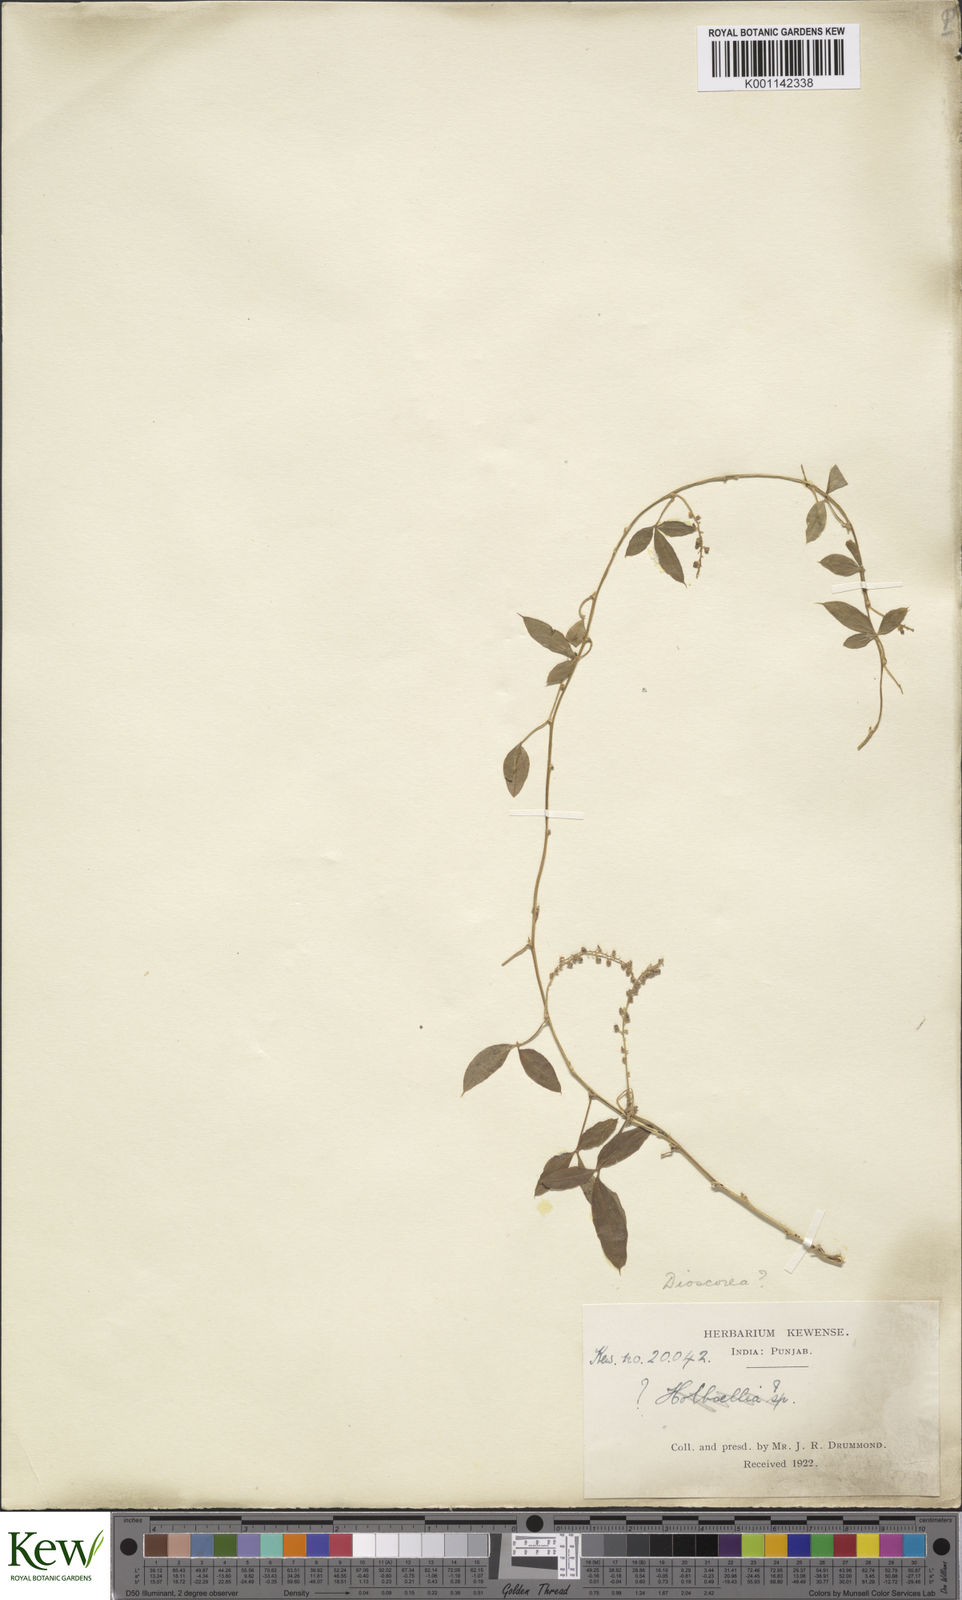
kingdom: Plantae
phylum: Tracheophyta
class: Liliopsida
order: Dioscoreales
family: Dioscoreaceae
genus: Dioscorea
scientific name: Dioscorea melanophyma
